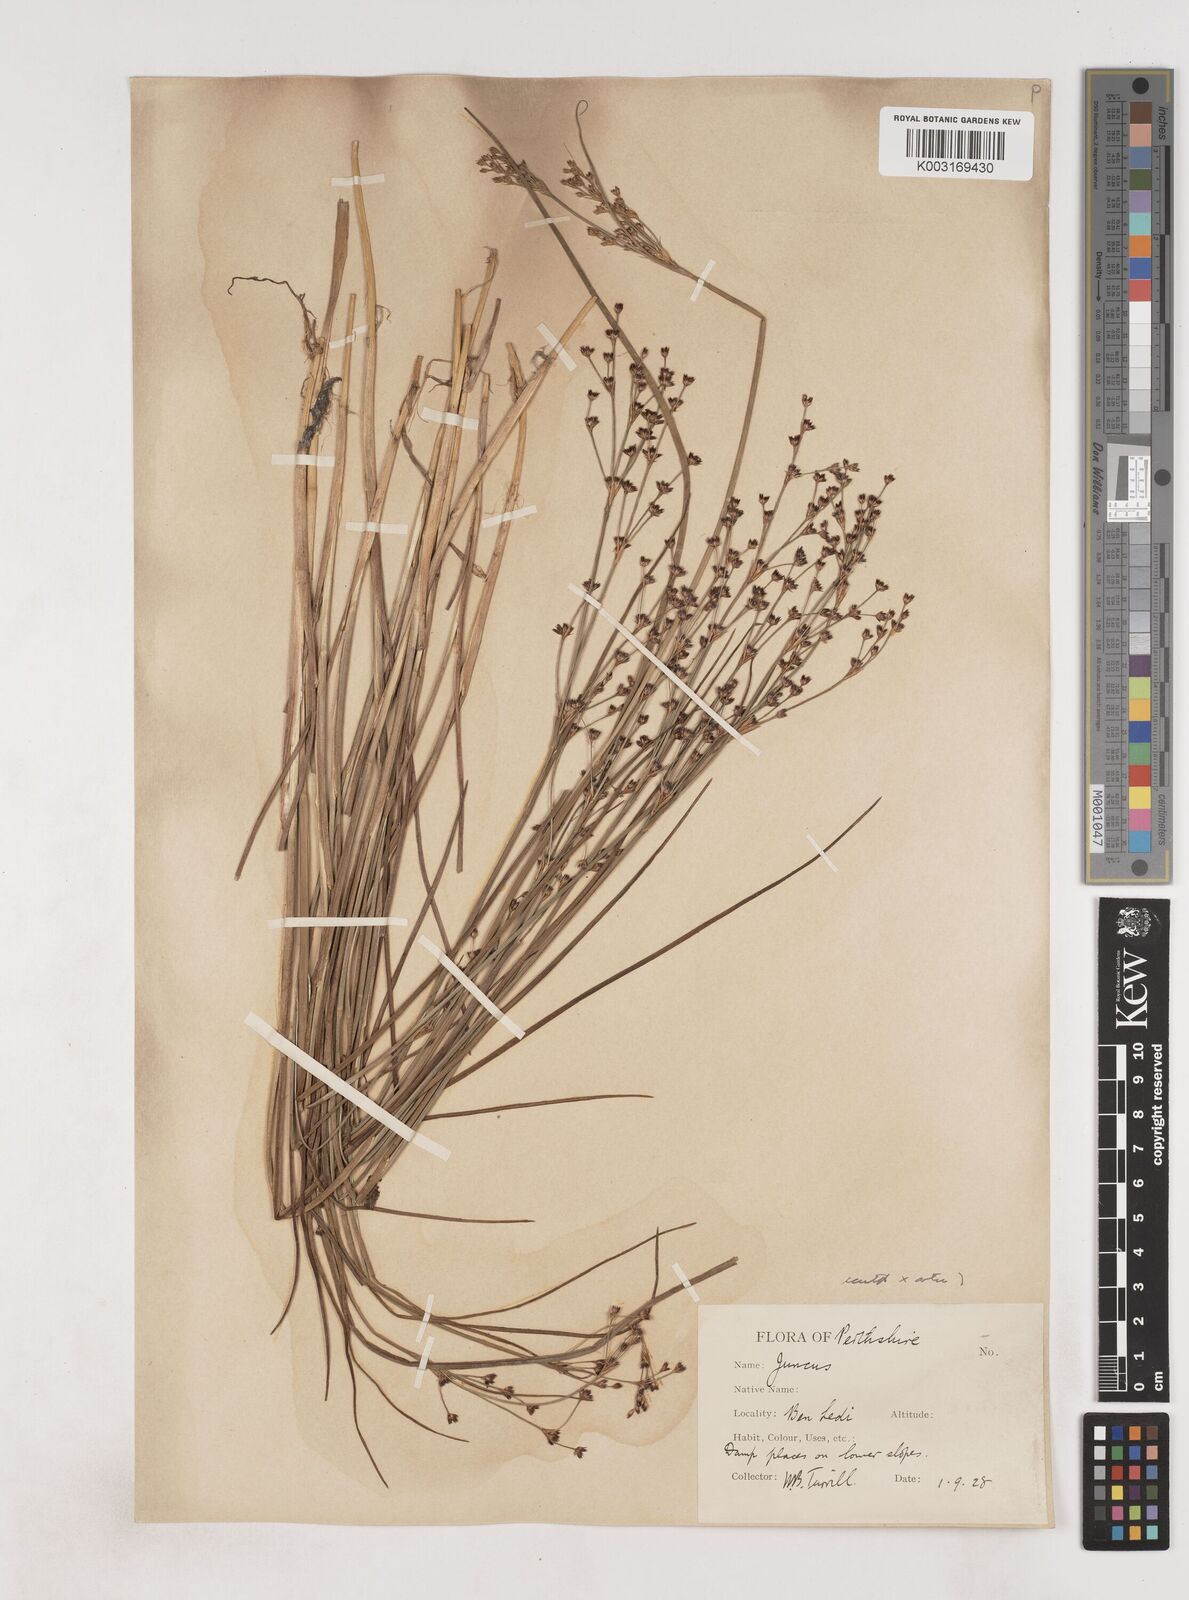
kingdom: Plantae
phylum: Tracheophyta
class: Liliopsida
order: Poales
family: Juncaceae
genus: Juncus
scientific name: Juncus acutiflorus
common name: Sharp-flowered rush
